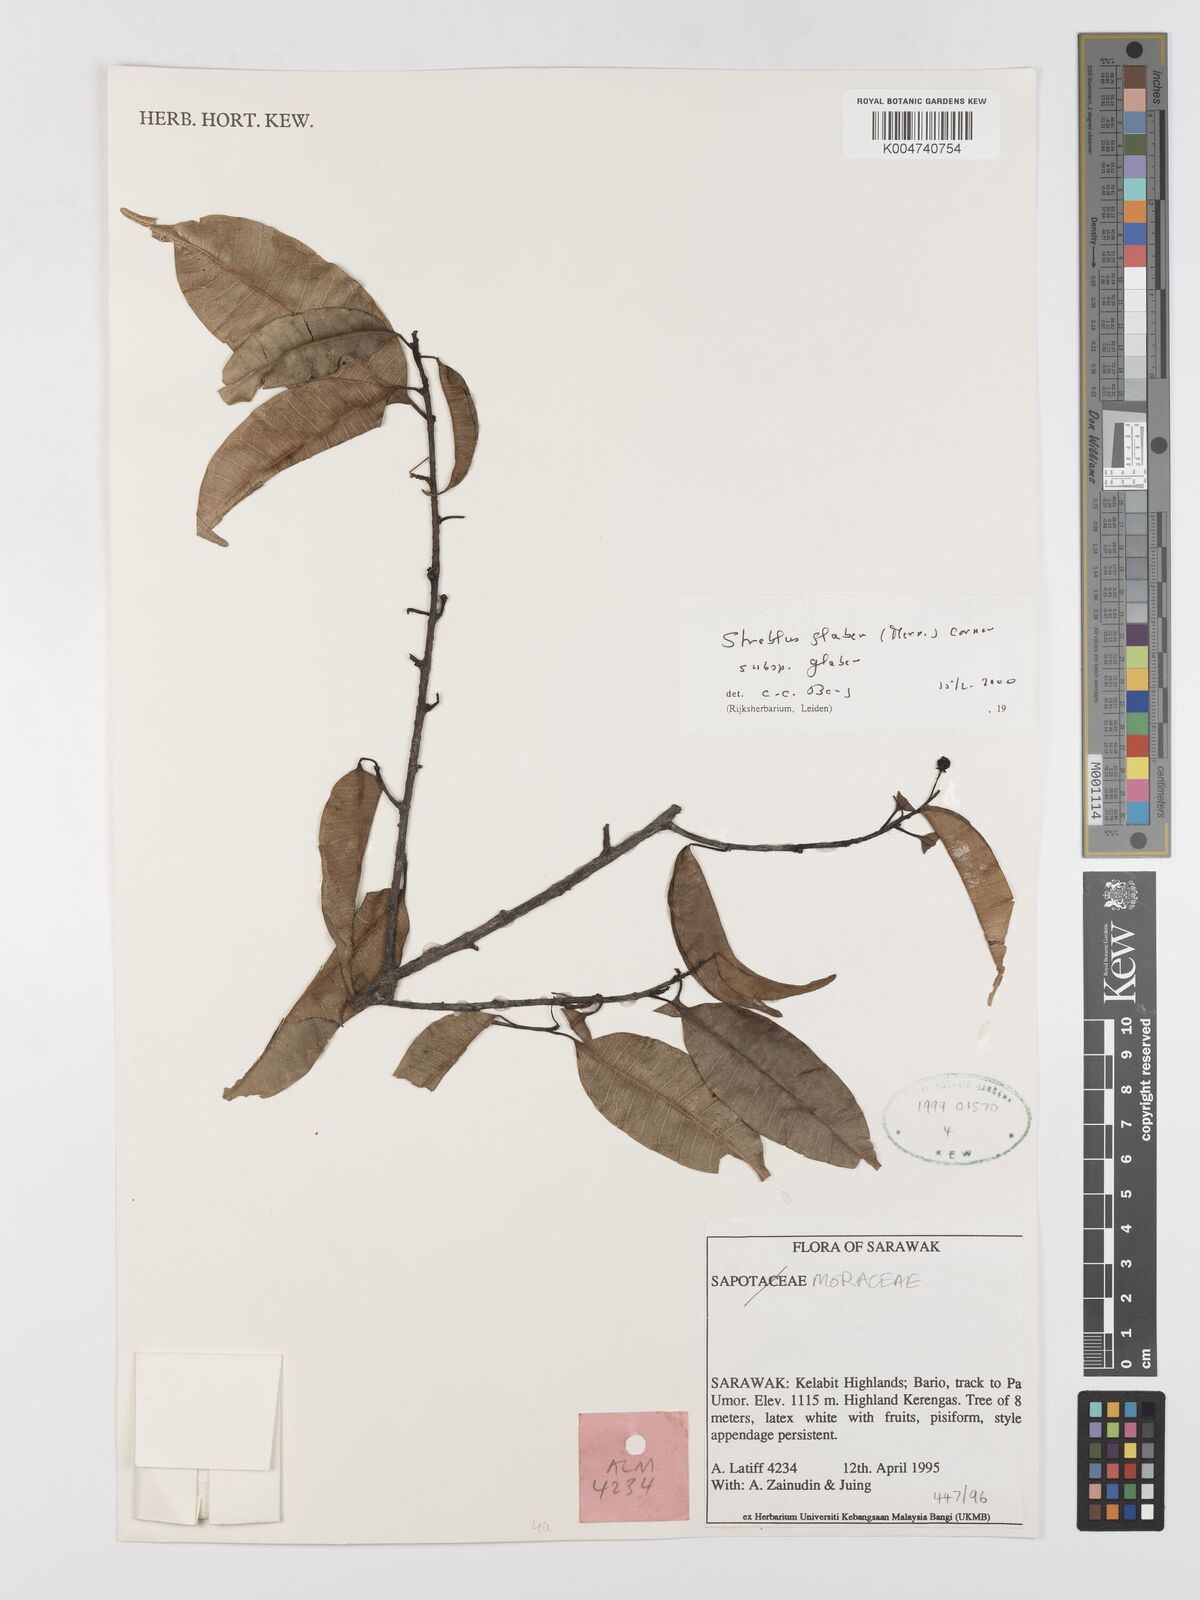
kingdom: Plantae
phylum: Tracheophyta
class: Magnoliopsida
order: Rosales
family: Moraceae
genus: Paratrophis
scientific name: Paratrophis glabra
